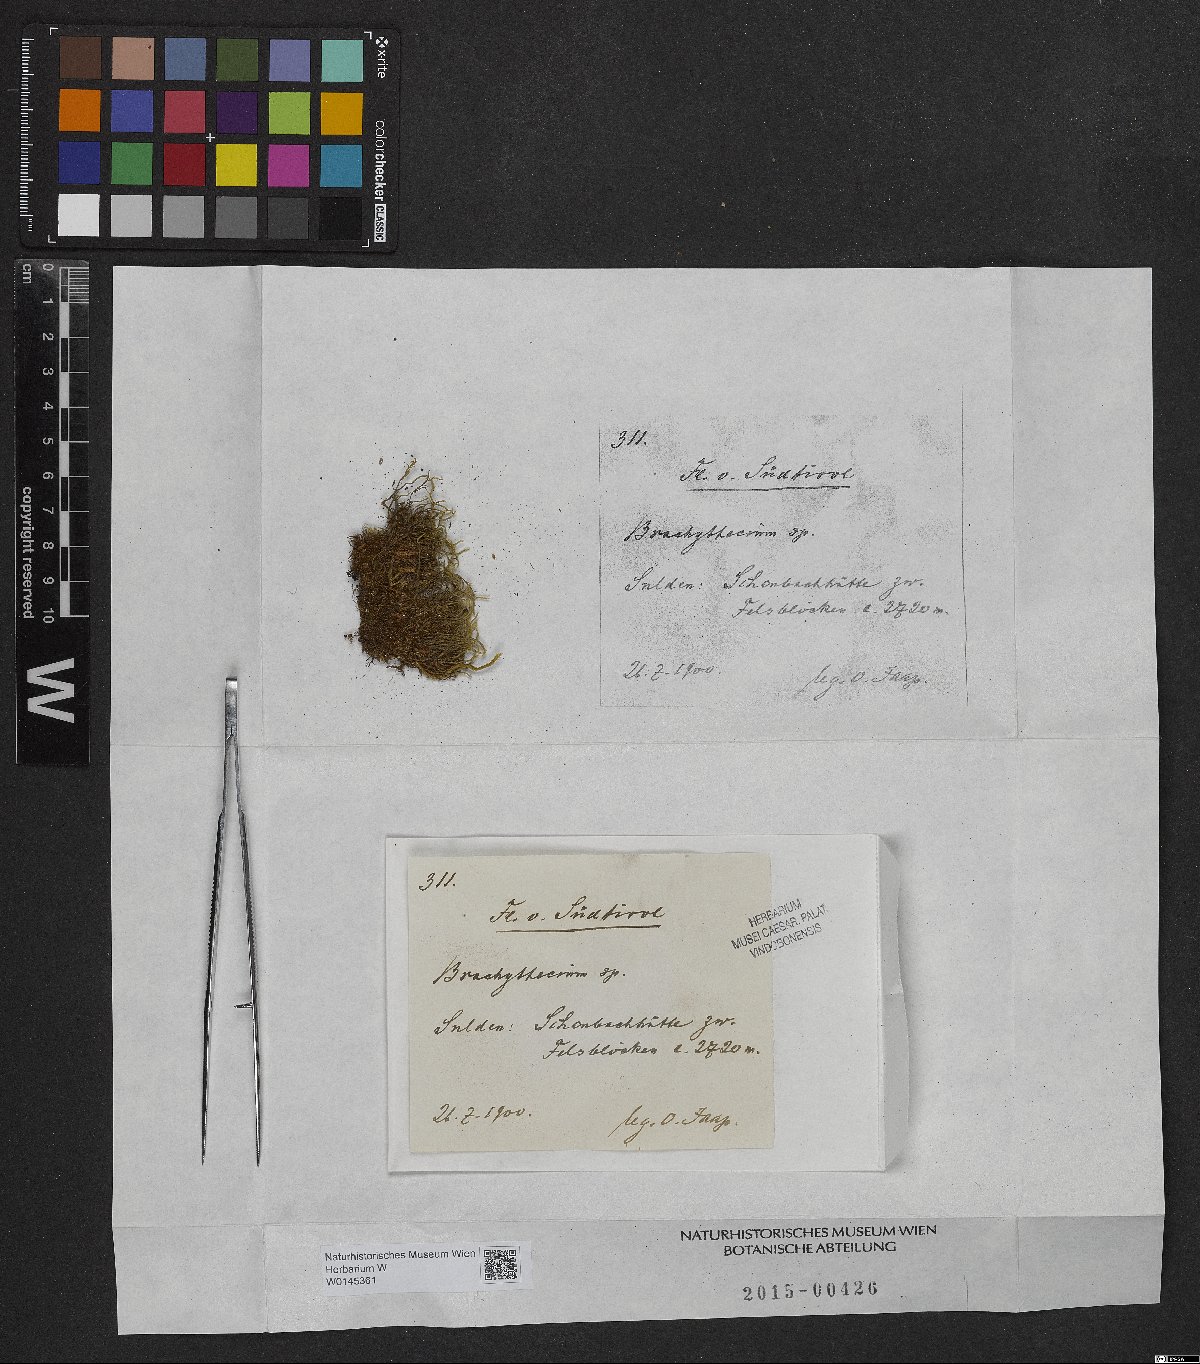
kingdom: Plantae
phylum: Bryophyta
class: Bryopsida
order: Hypnales
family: Brachytheciaceae
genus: Brachythecium
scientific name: Brachythecium
